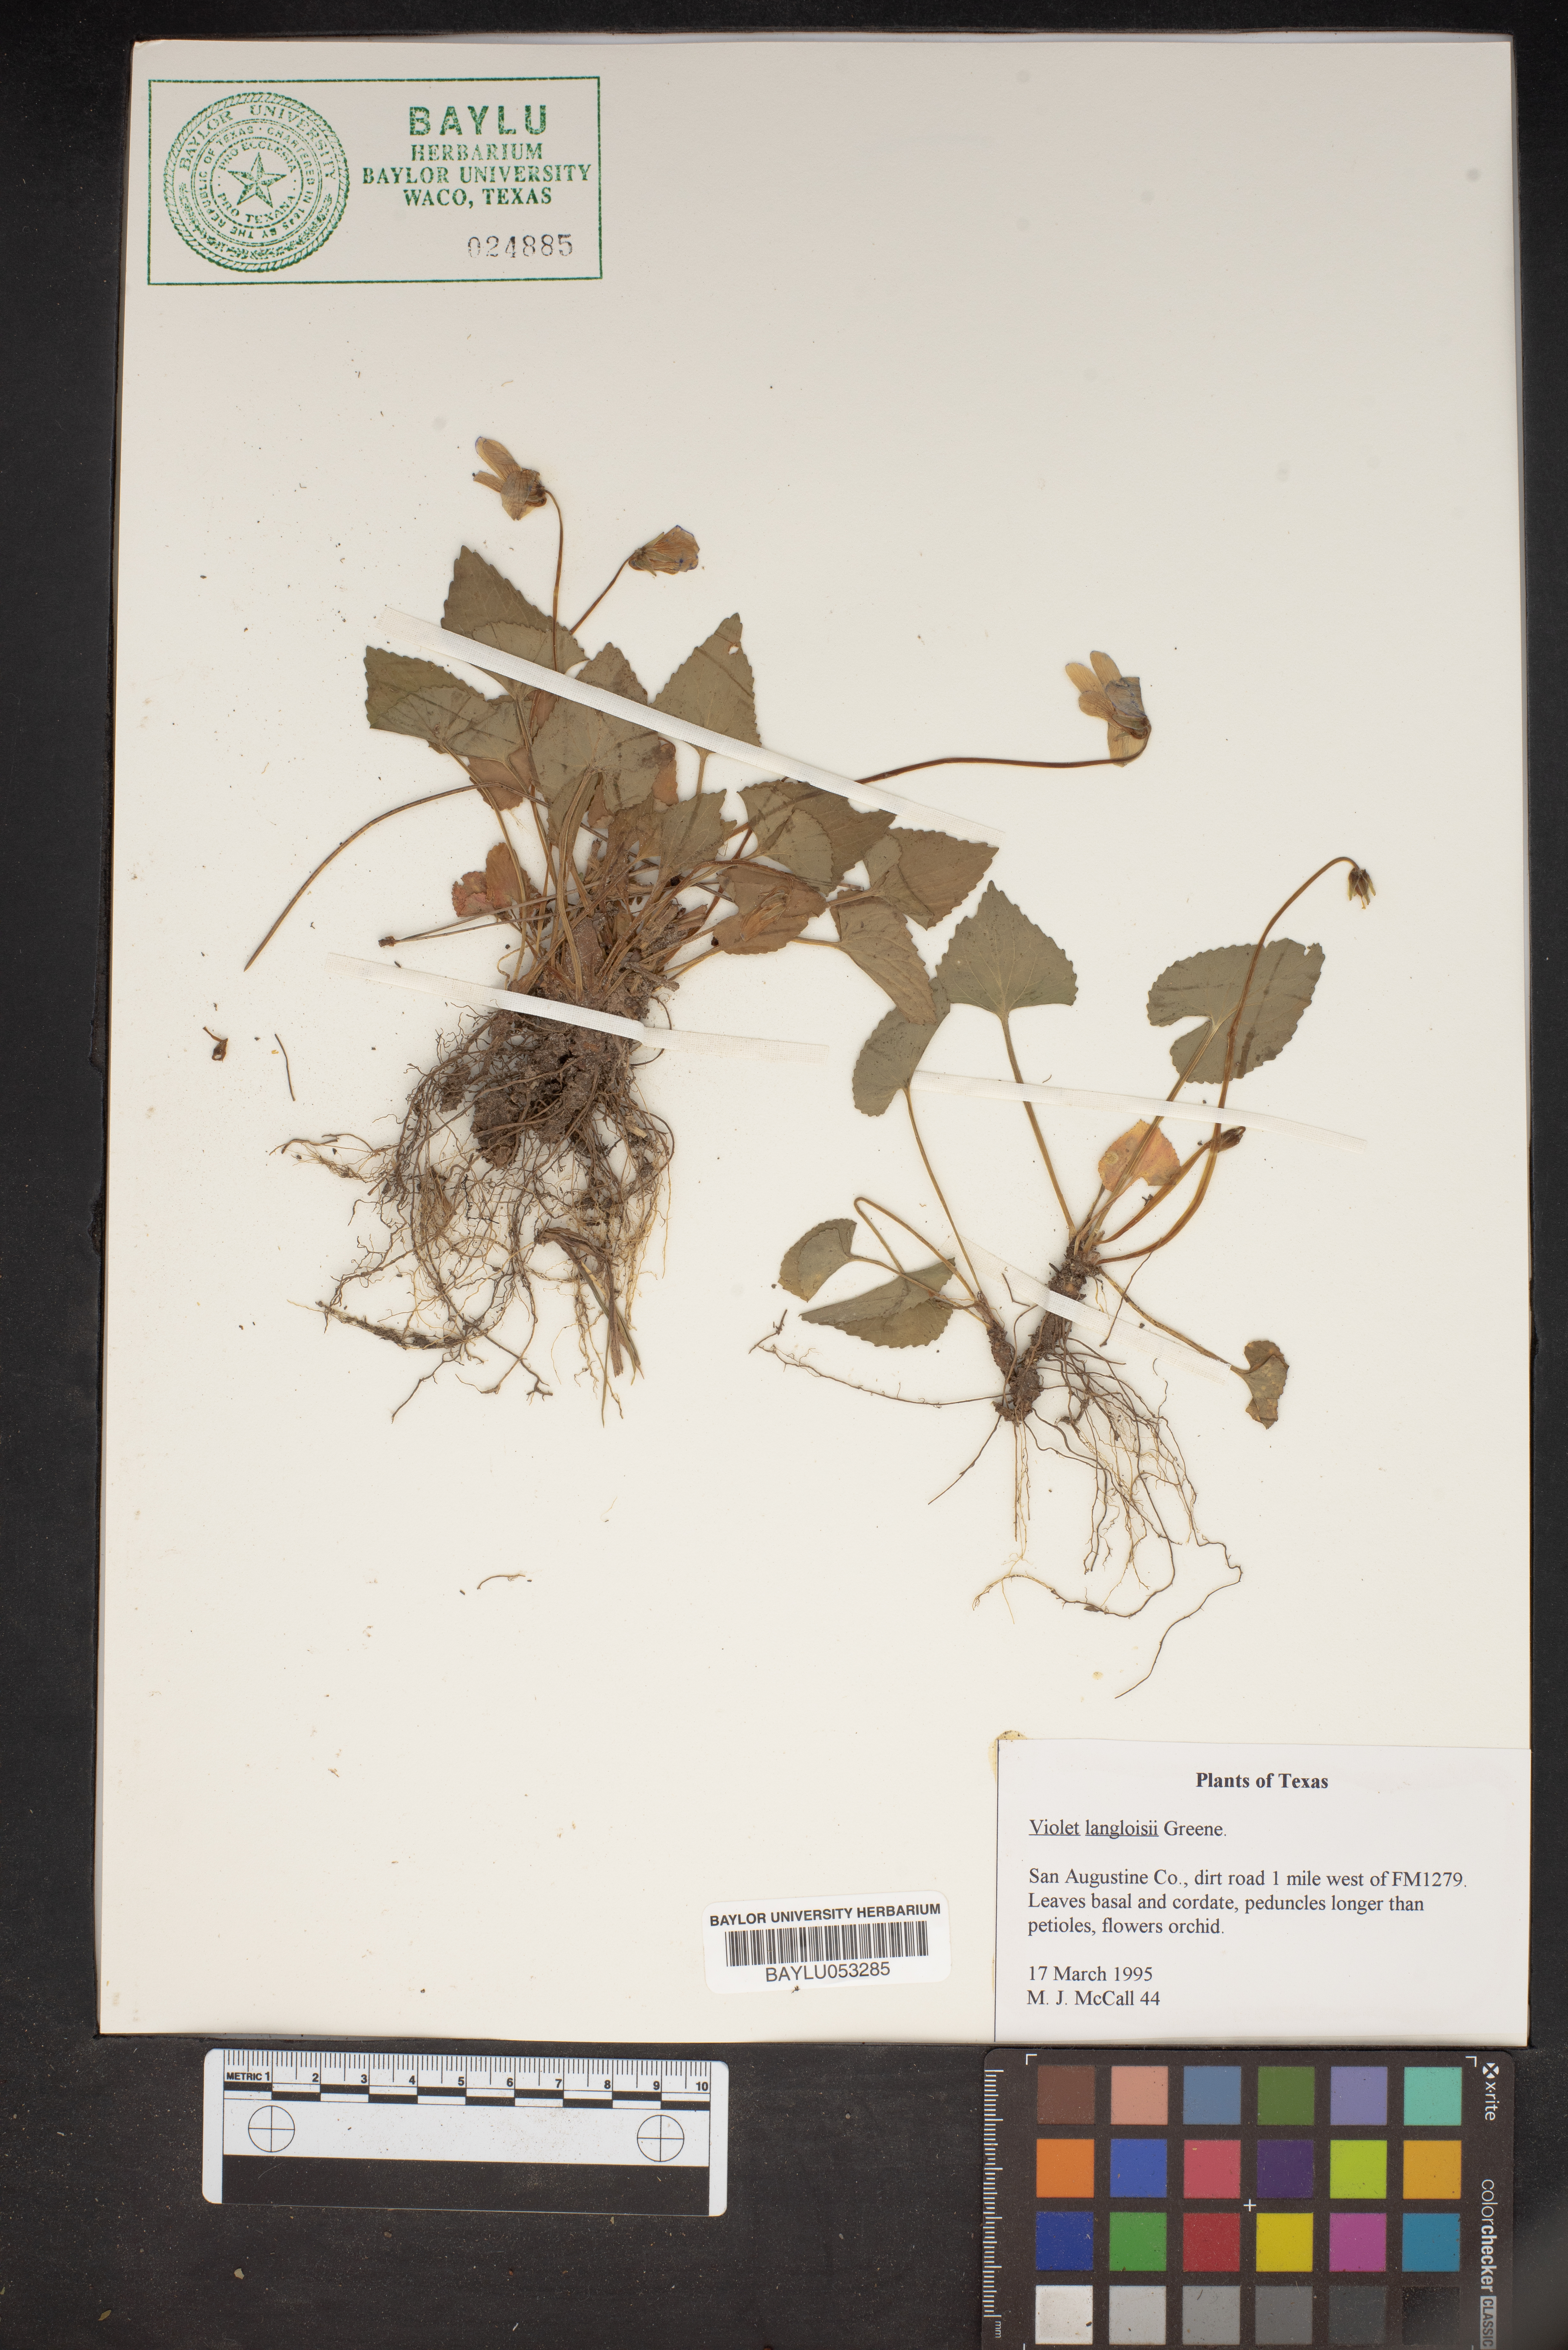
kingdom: Plantae
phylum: Tracheophyta
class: Magnoliopsida
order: Malpighiales
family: Violaceae
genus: Viola
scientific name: Viola langloisii
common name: Langlois' violet
